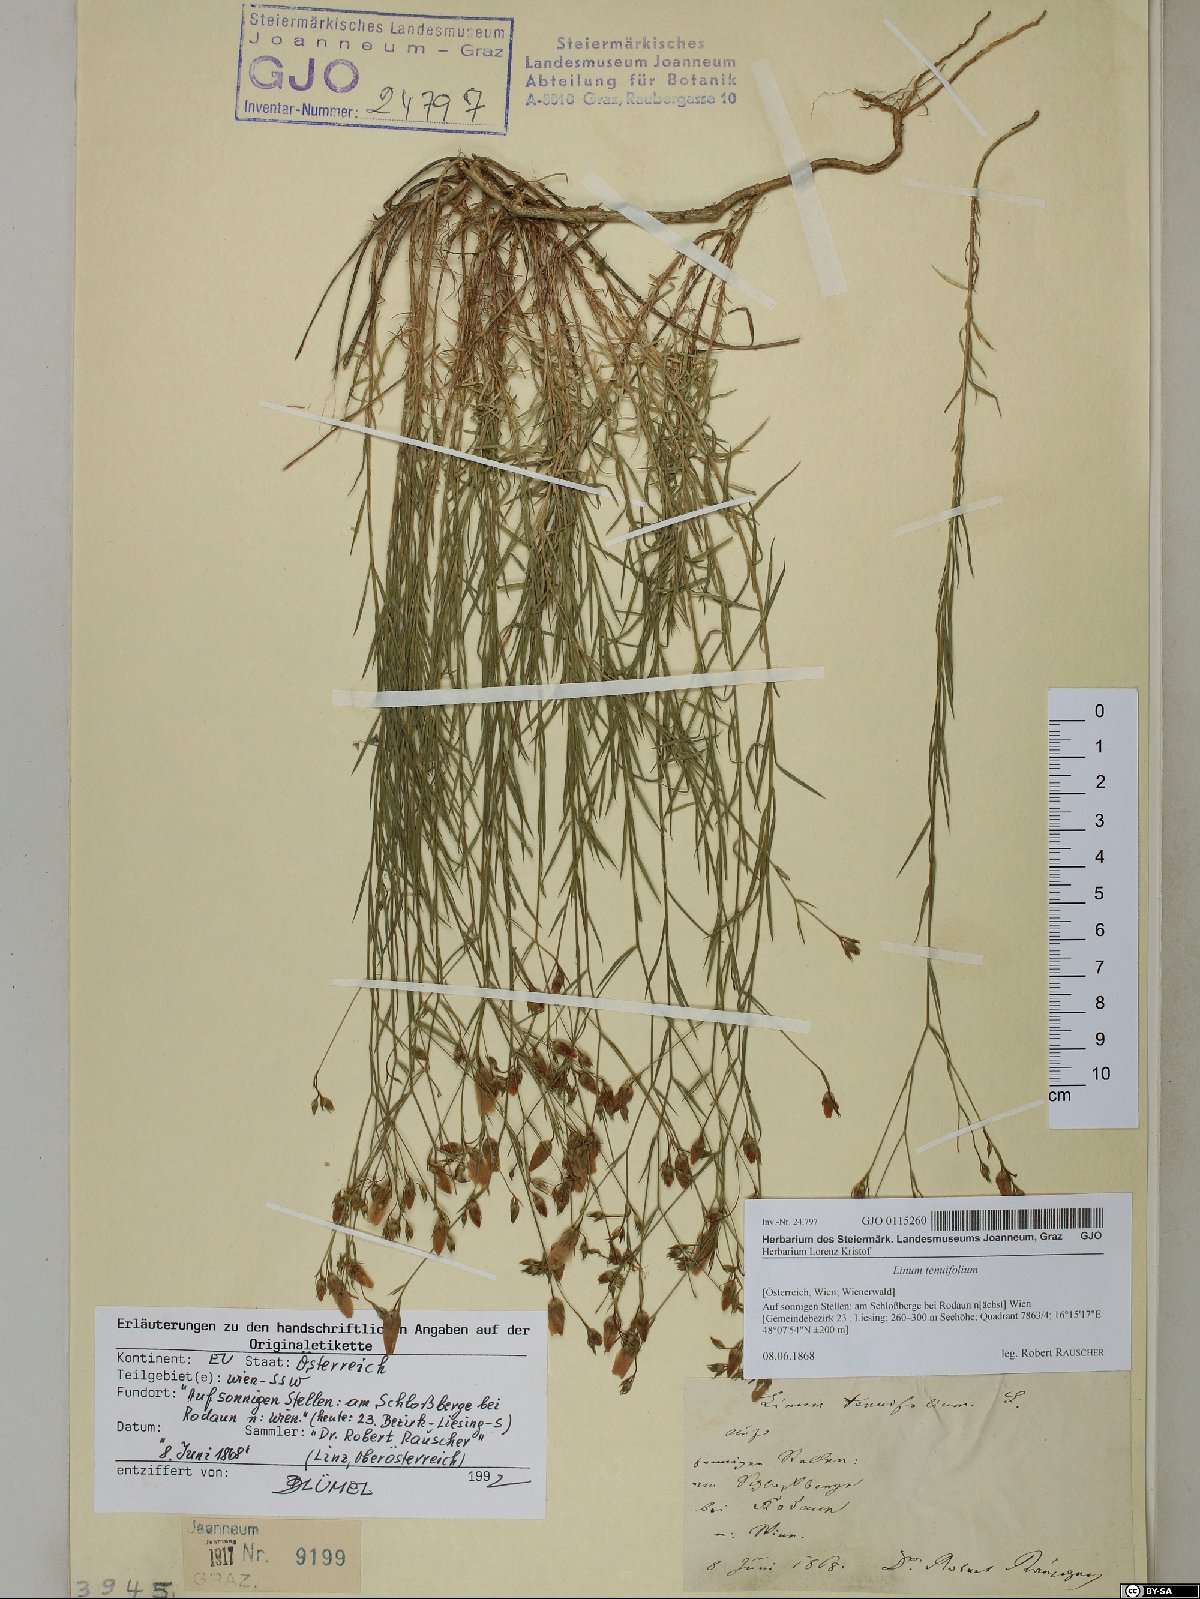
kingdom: Plantae
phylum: Tracheophyta
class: Magnoliopsida
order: Malpighiales
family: Linaceae
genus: Linum
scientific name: Linum tenuifolium
